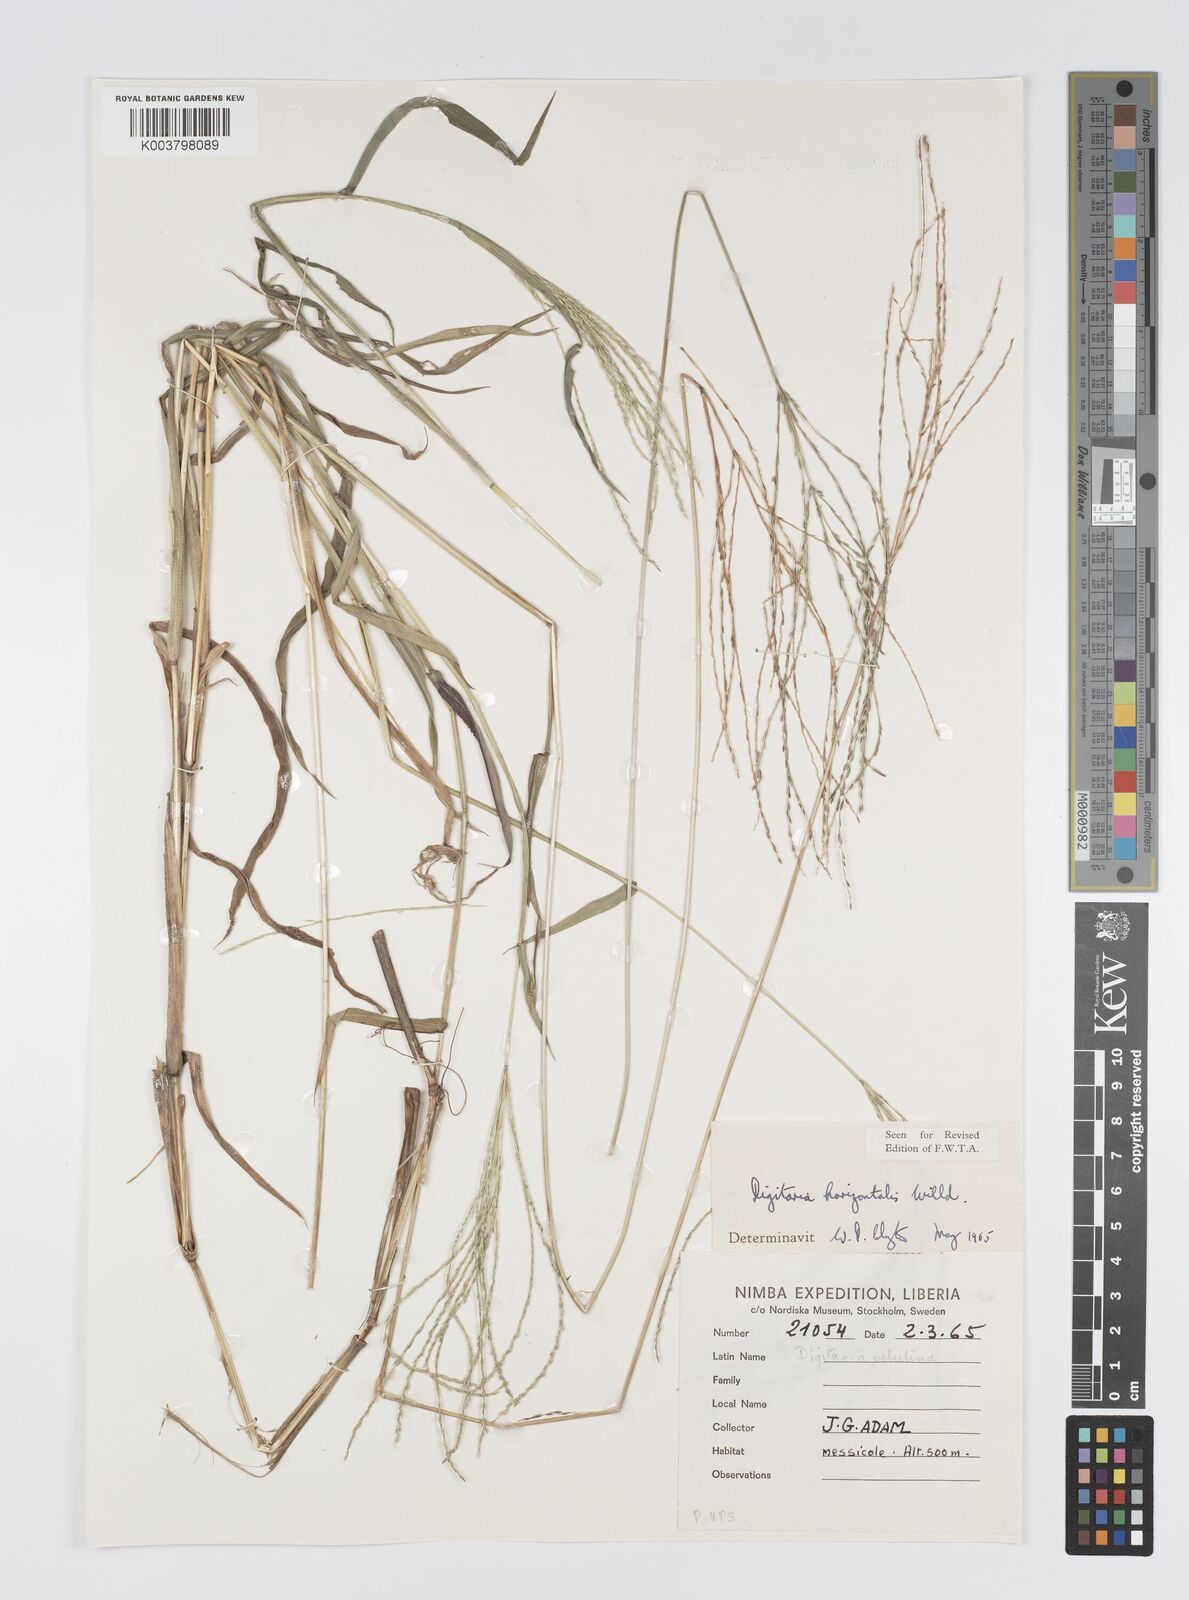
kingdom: Plantae
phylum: Tracheophyta
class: Liliopsida
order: Poales
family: Poaceae
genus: Digitaria
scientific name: Digitaria horizontalis
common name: Jamaican crabgrass
